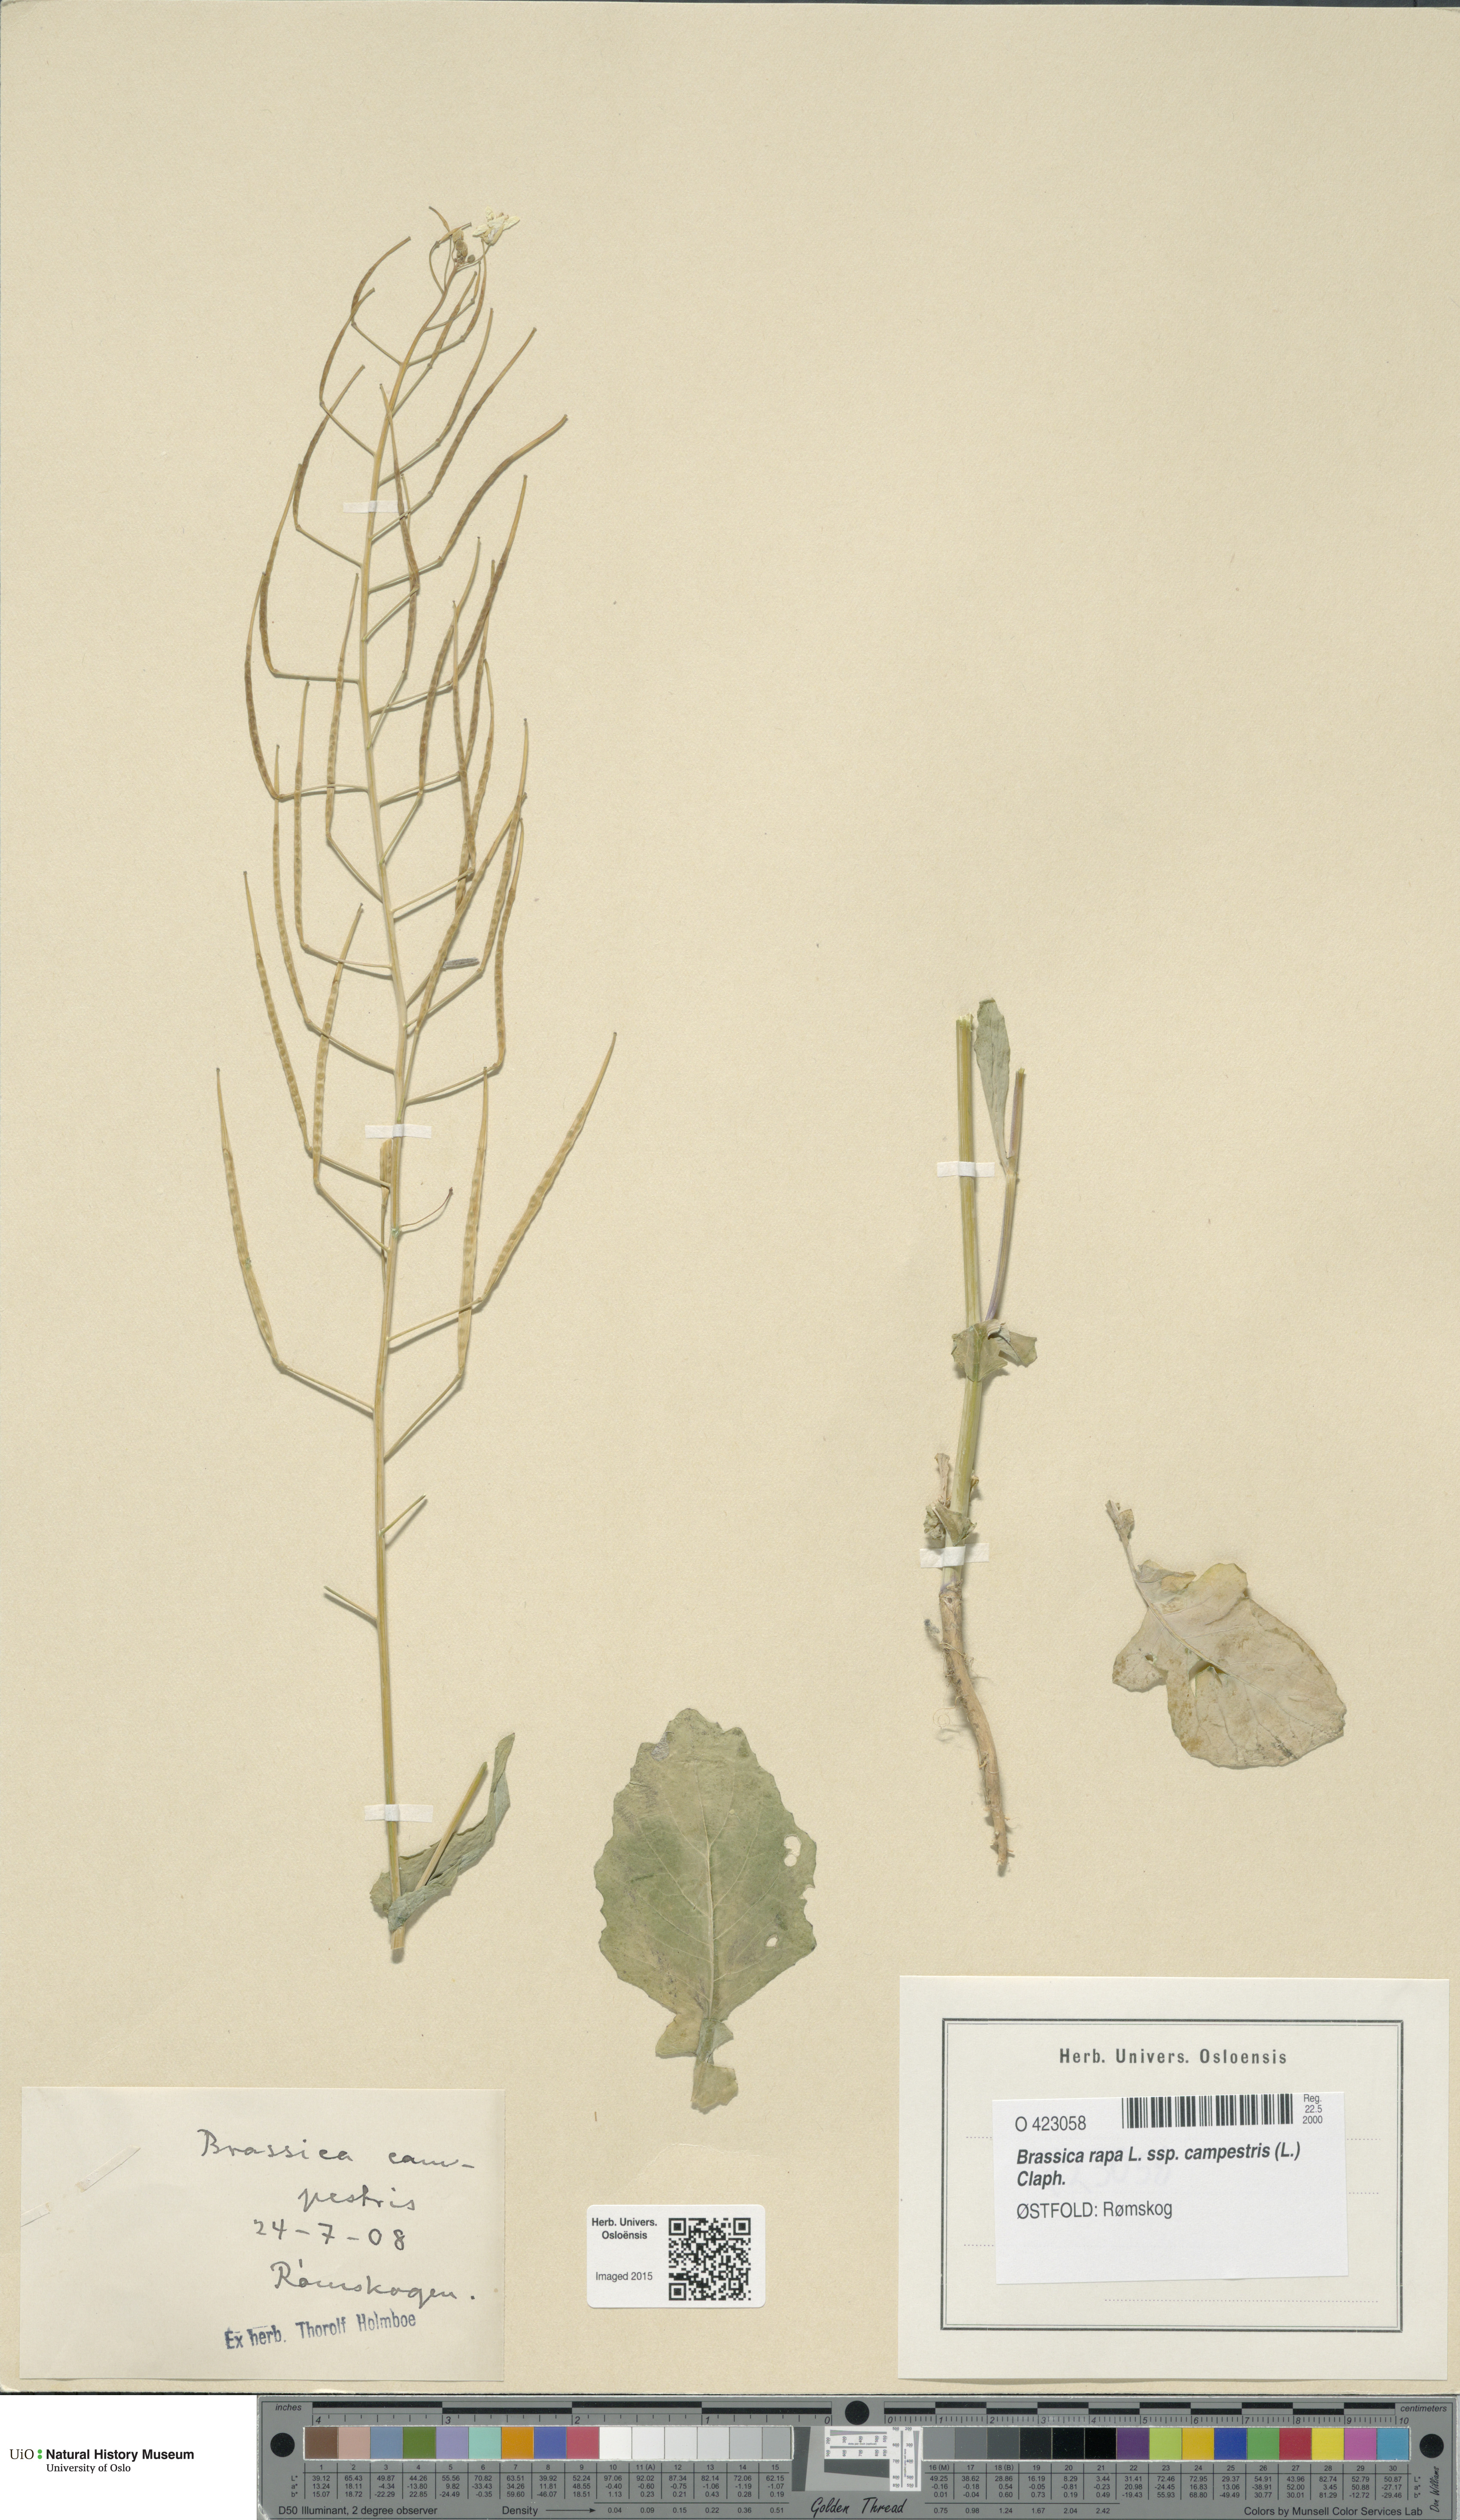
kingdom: Plantae
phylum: Tracheophyta
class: Magnoliopsida
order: Brassicales
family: Brassicaceae
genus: Brassica
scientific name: Brassica rapa
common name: Field mustard
